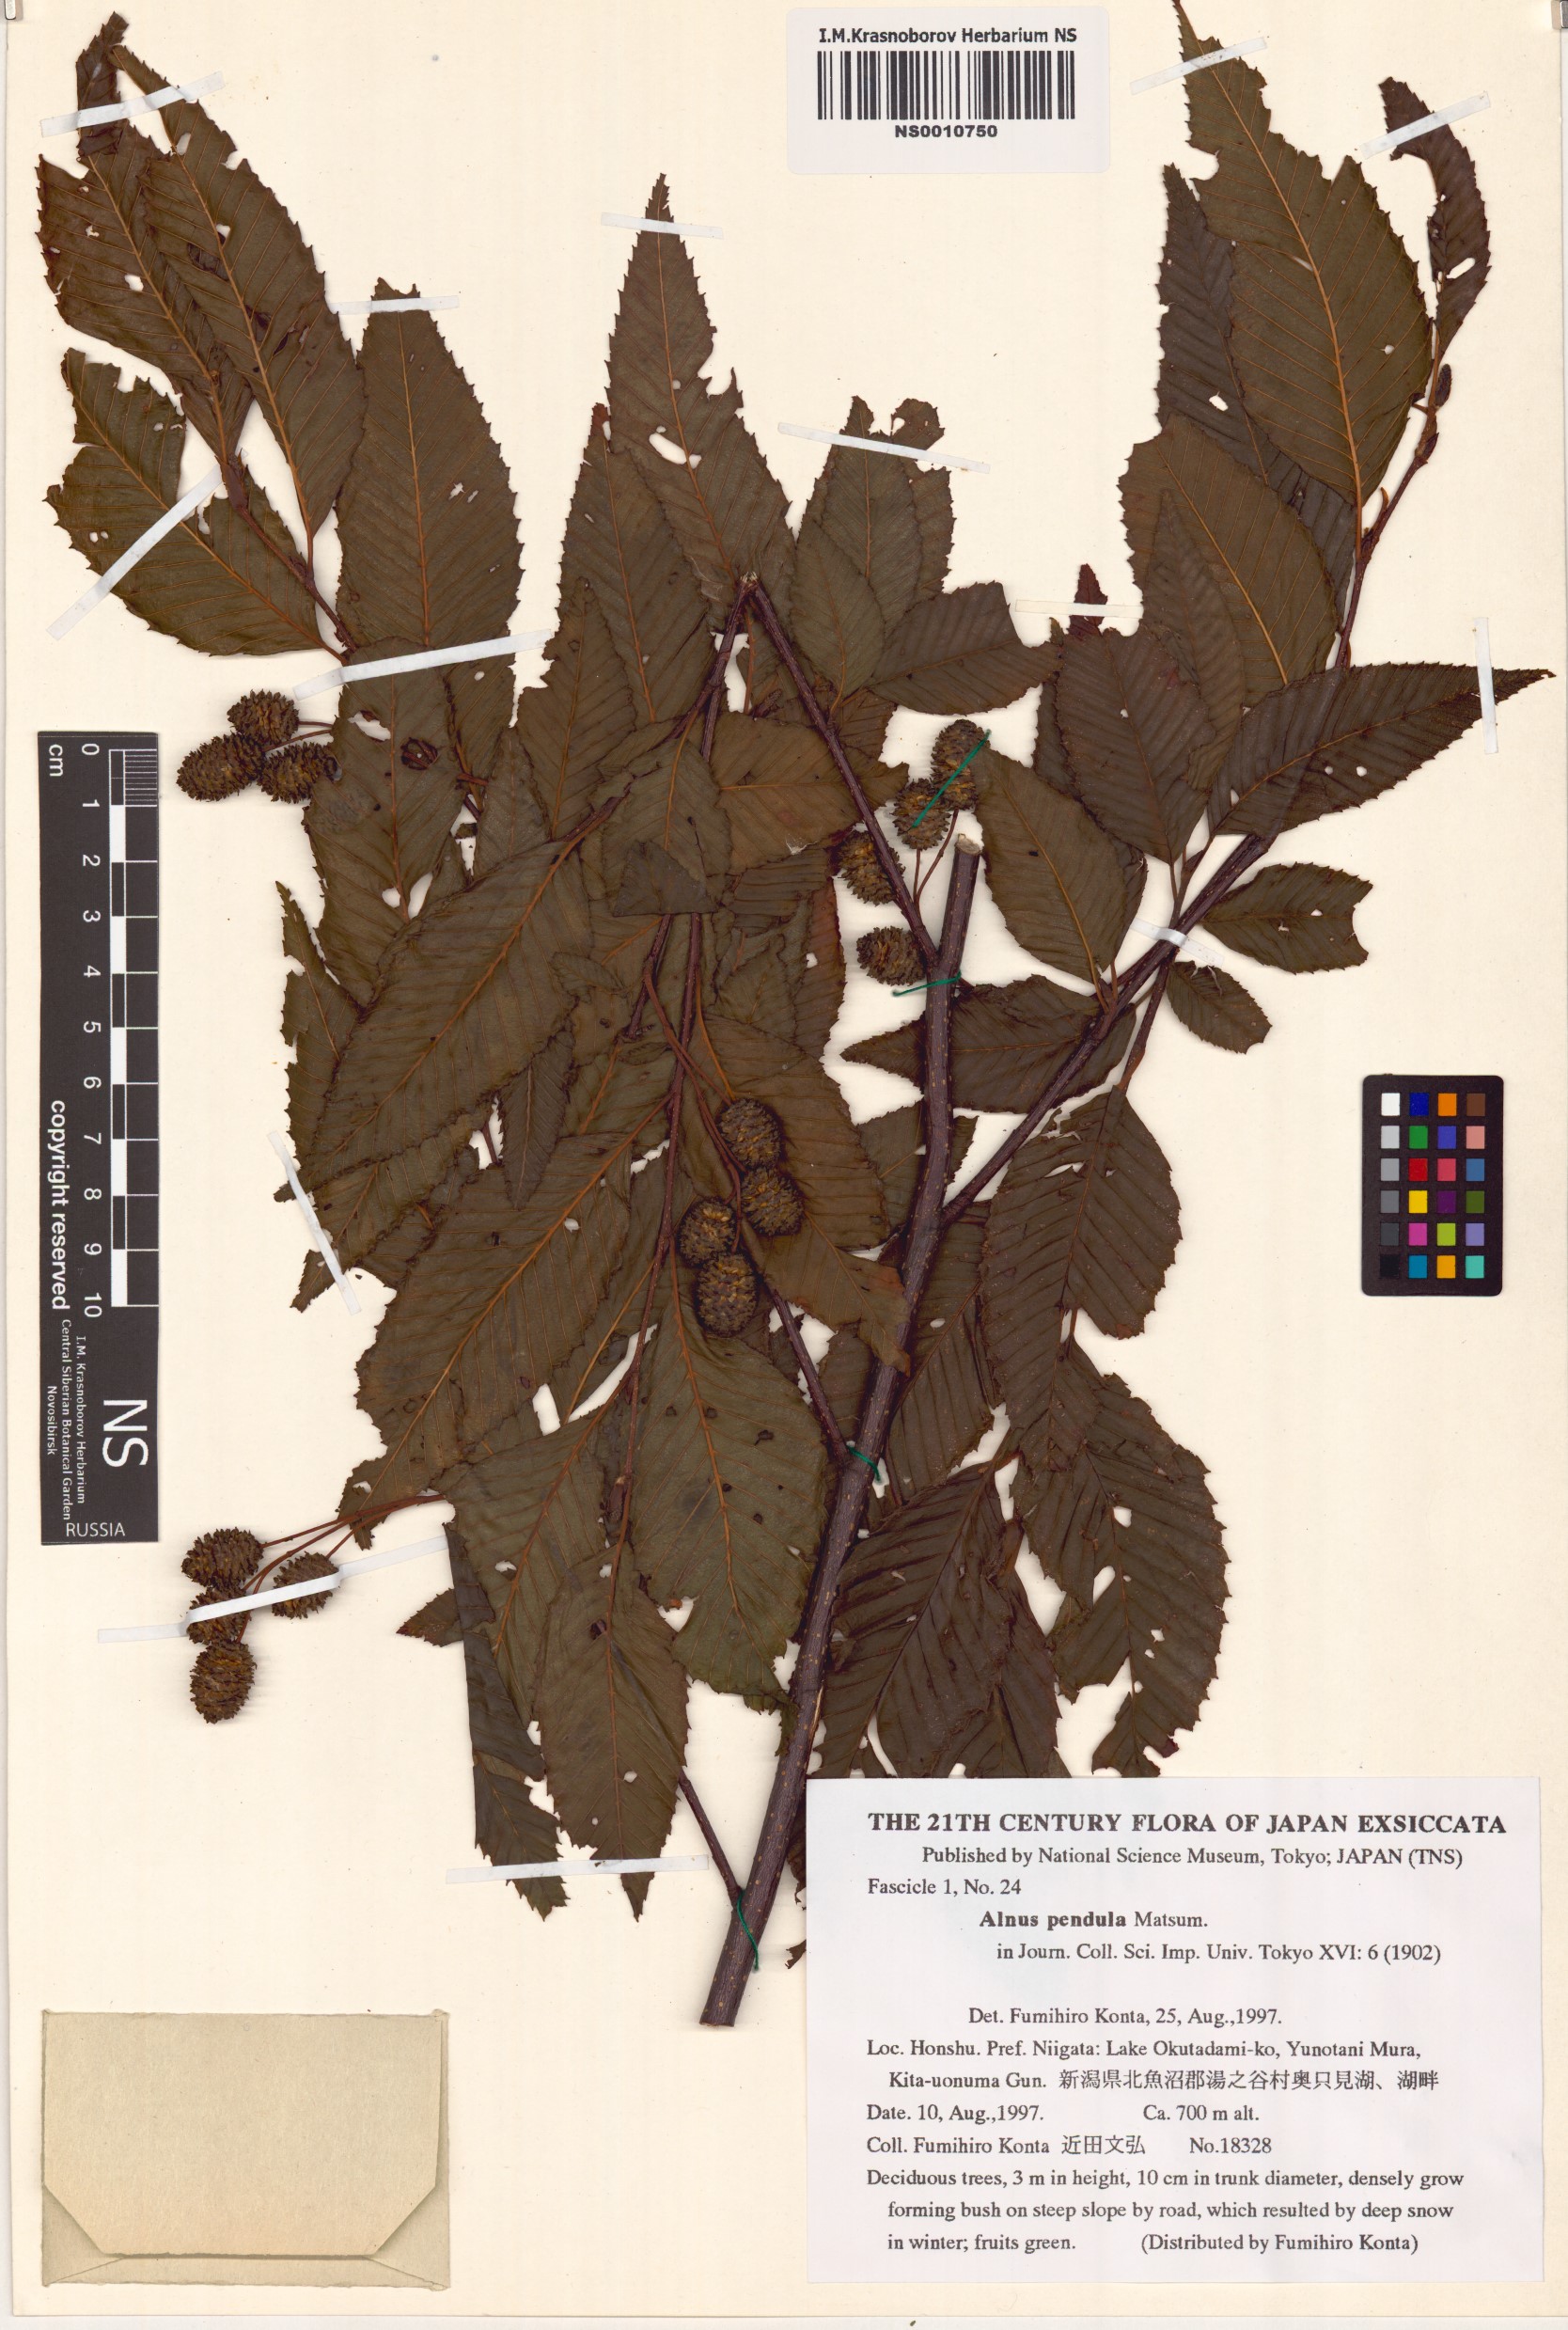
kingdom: Plantae
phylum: Tracheophyta
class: Magnoliopsida
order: Fagales
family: Betulaceae
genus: Alnus
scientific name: Alnus pendula
